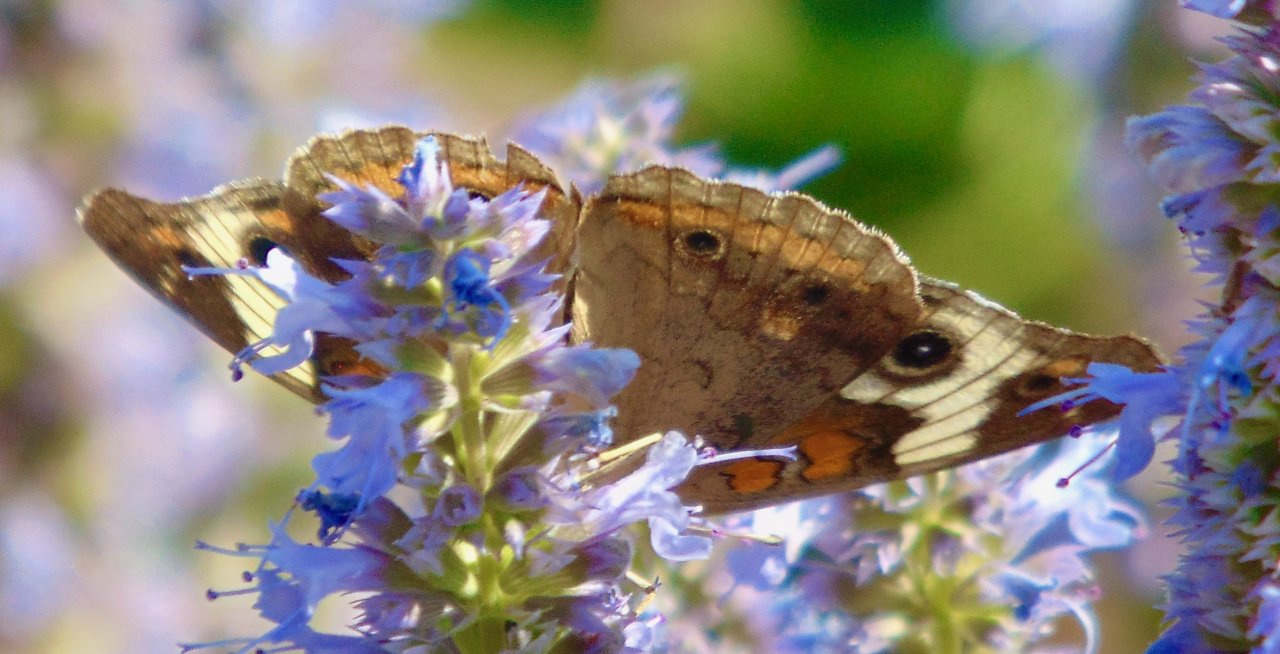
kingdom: Animalia
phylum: Arthropoda
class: Insecta
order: Lepidoptera
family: Nymphalidae
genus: Junonia
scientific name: Junonia coenia
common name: Common Buckeye
